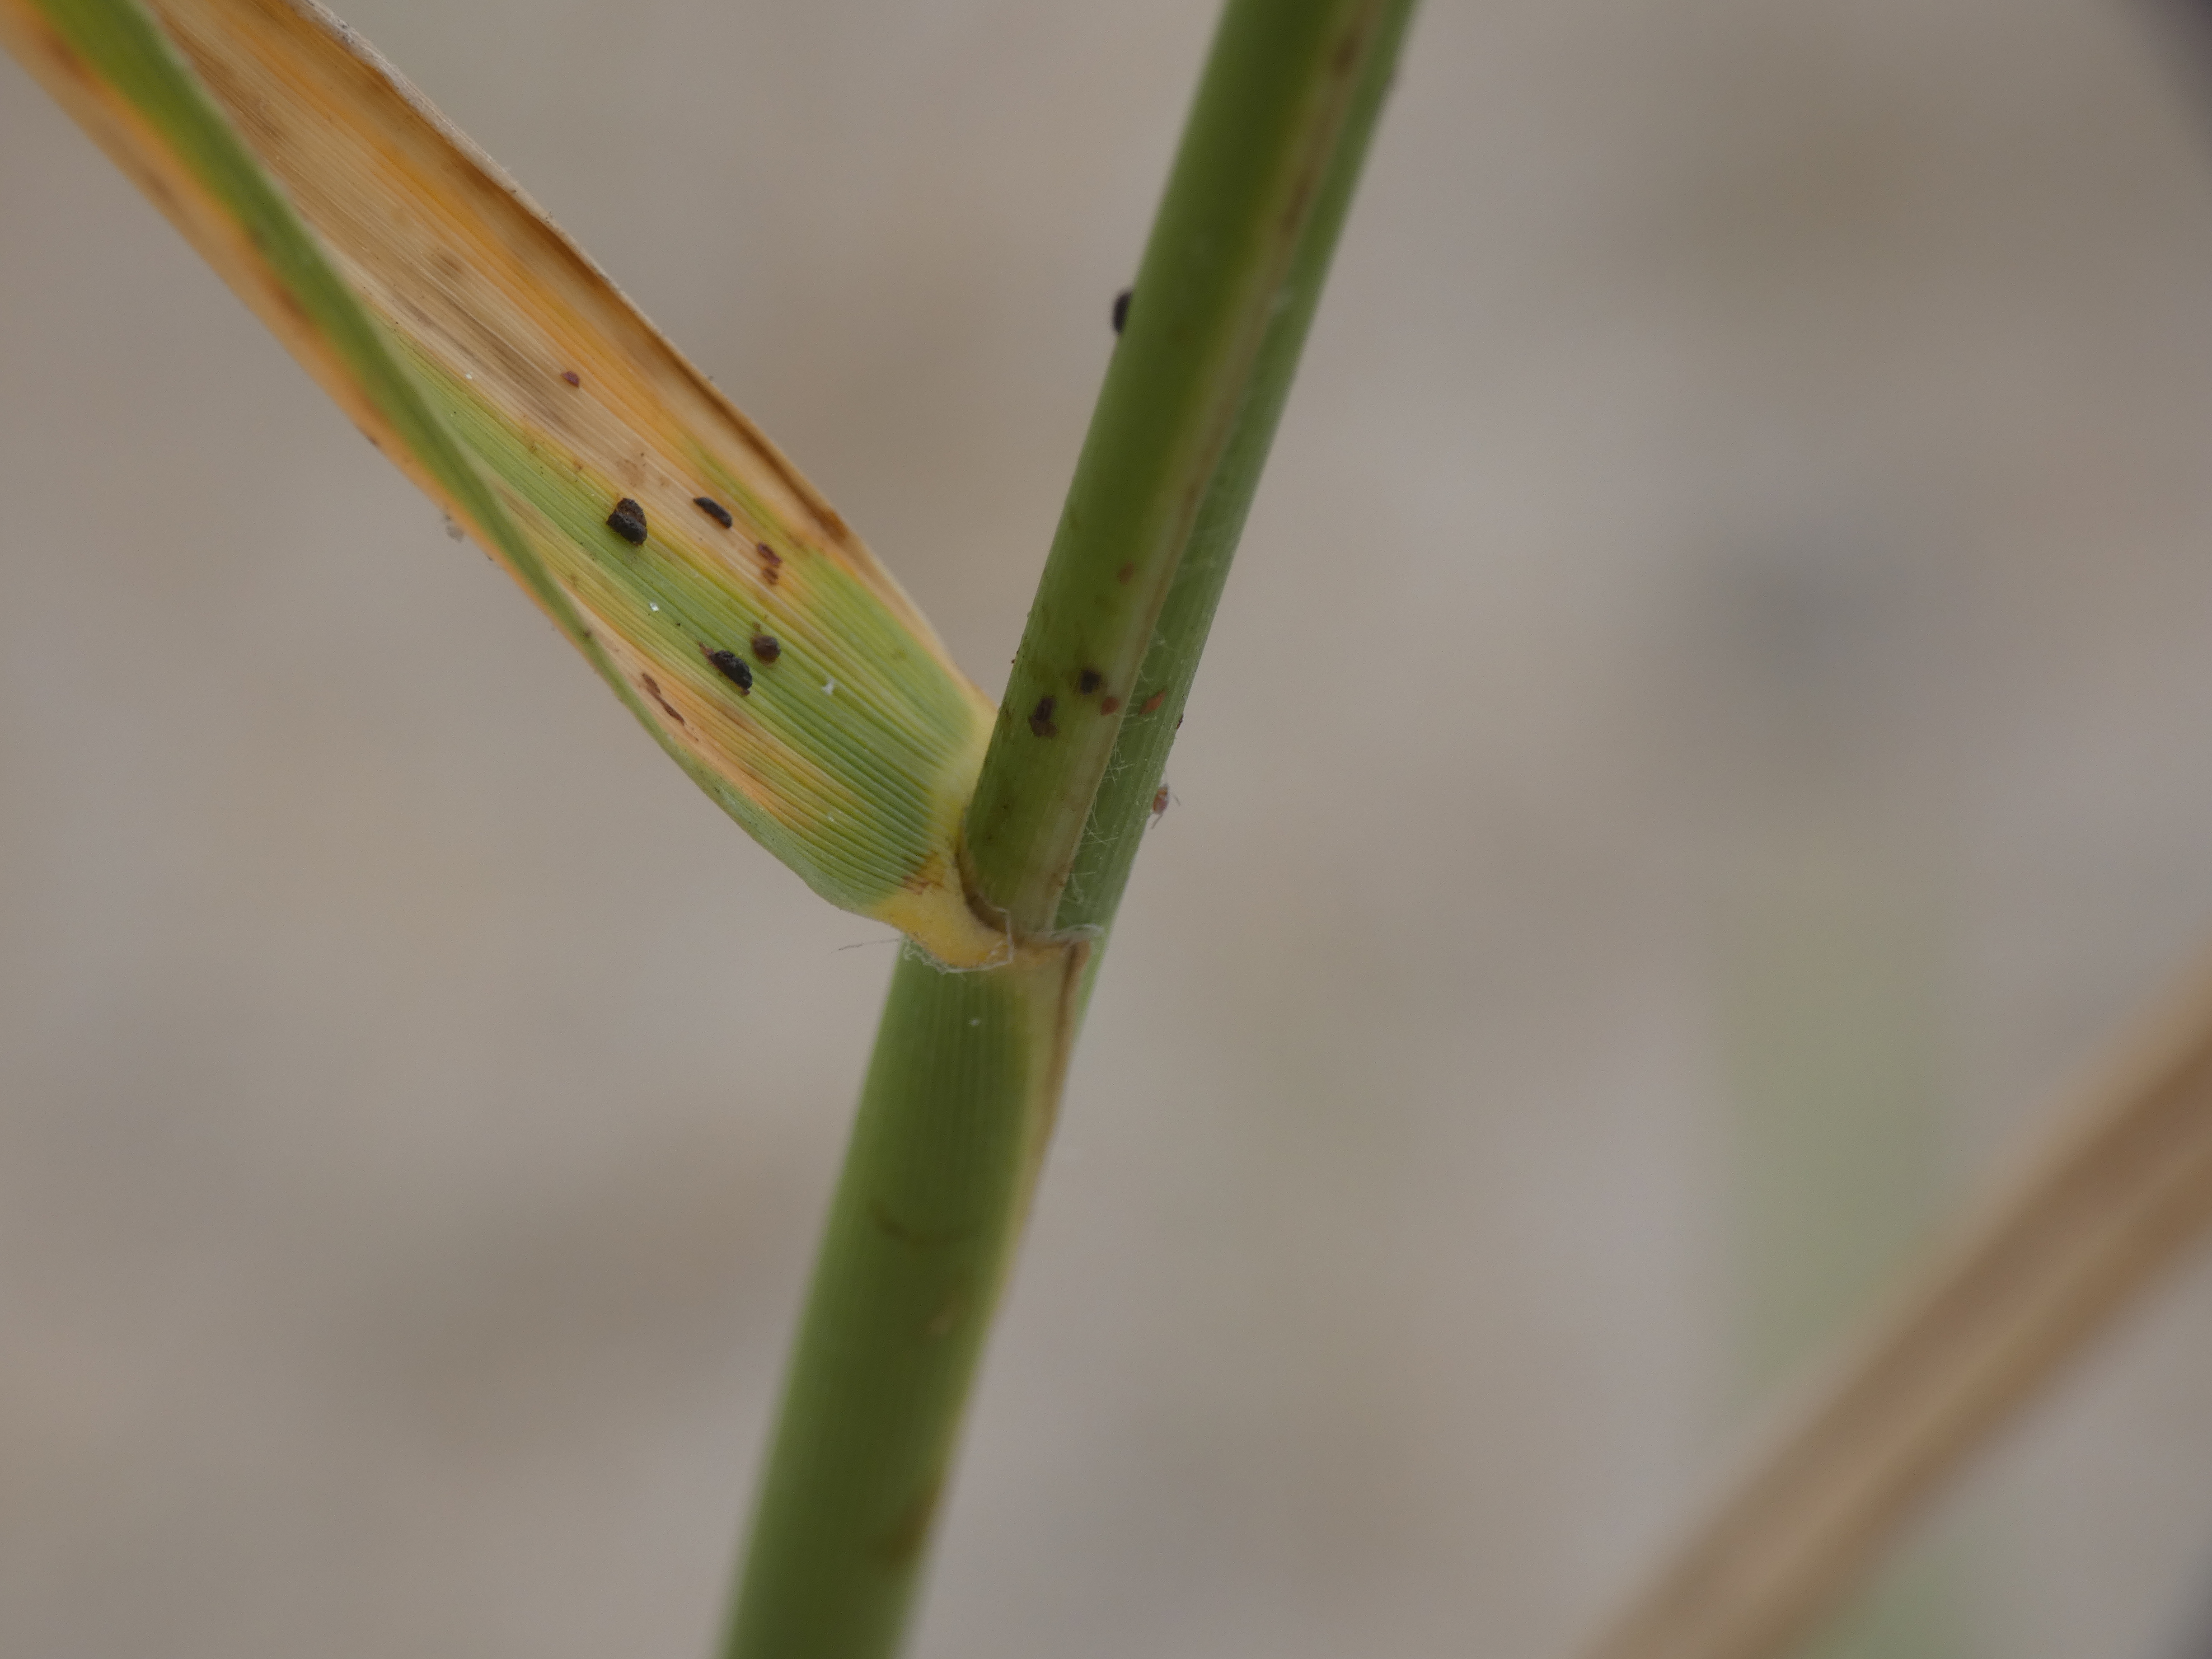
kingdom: Plantae
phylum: Tracheophyta
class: Liliopsida
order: Poales
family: Poaceae
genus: Phragmites
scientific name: Phragmites australis
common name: Tagrør
